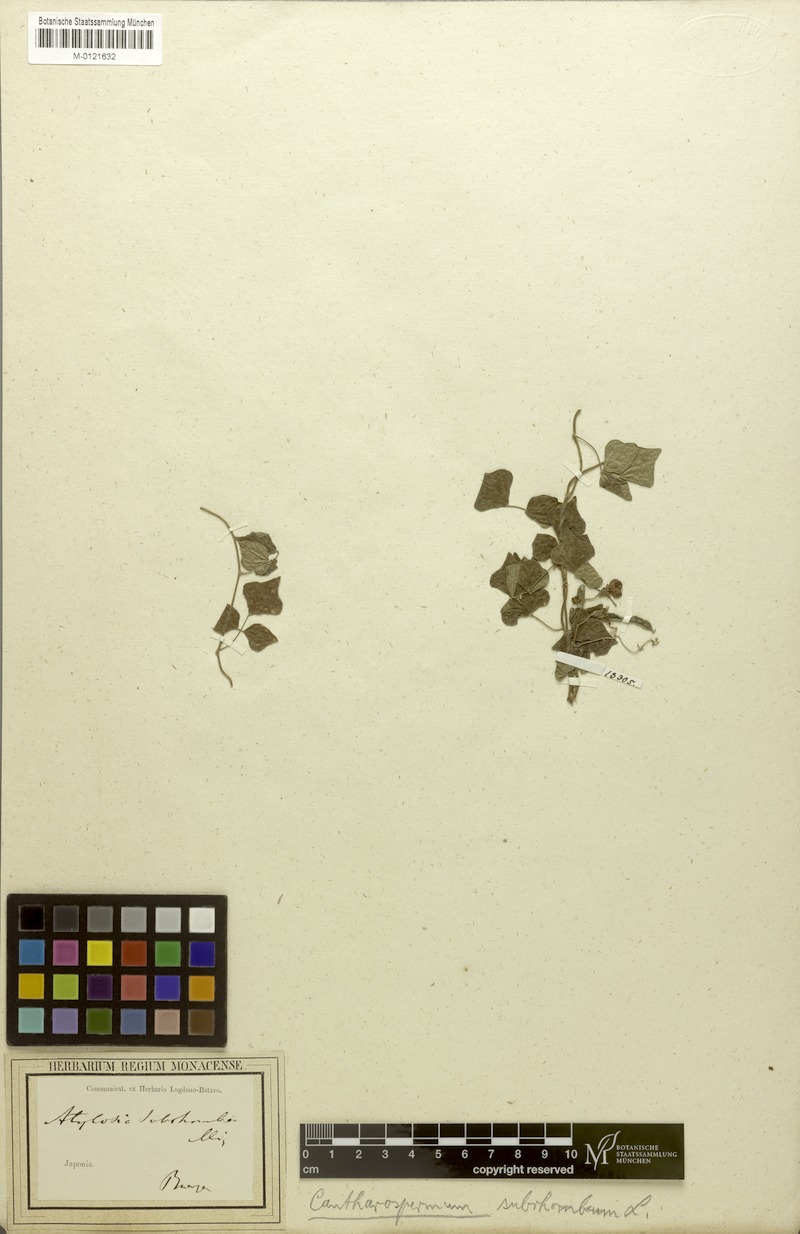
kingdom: Plantae
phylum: Tracheophyta
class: Magnoliopsida
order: Fabales
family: Fabaceae
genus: Dunbaria
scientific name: Dunbaria villosa
